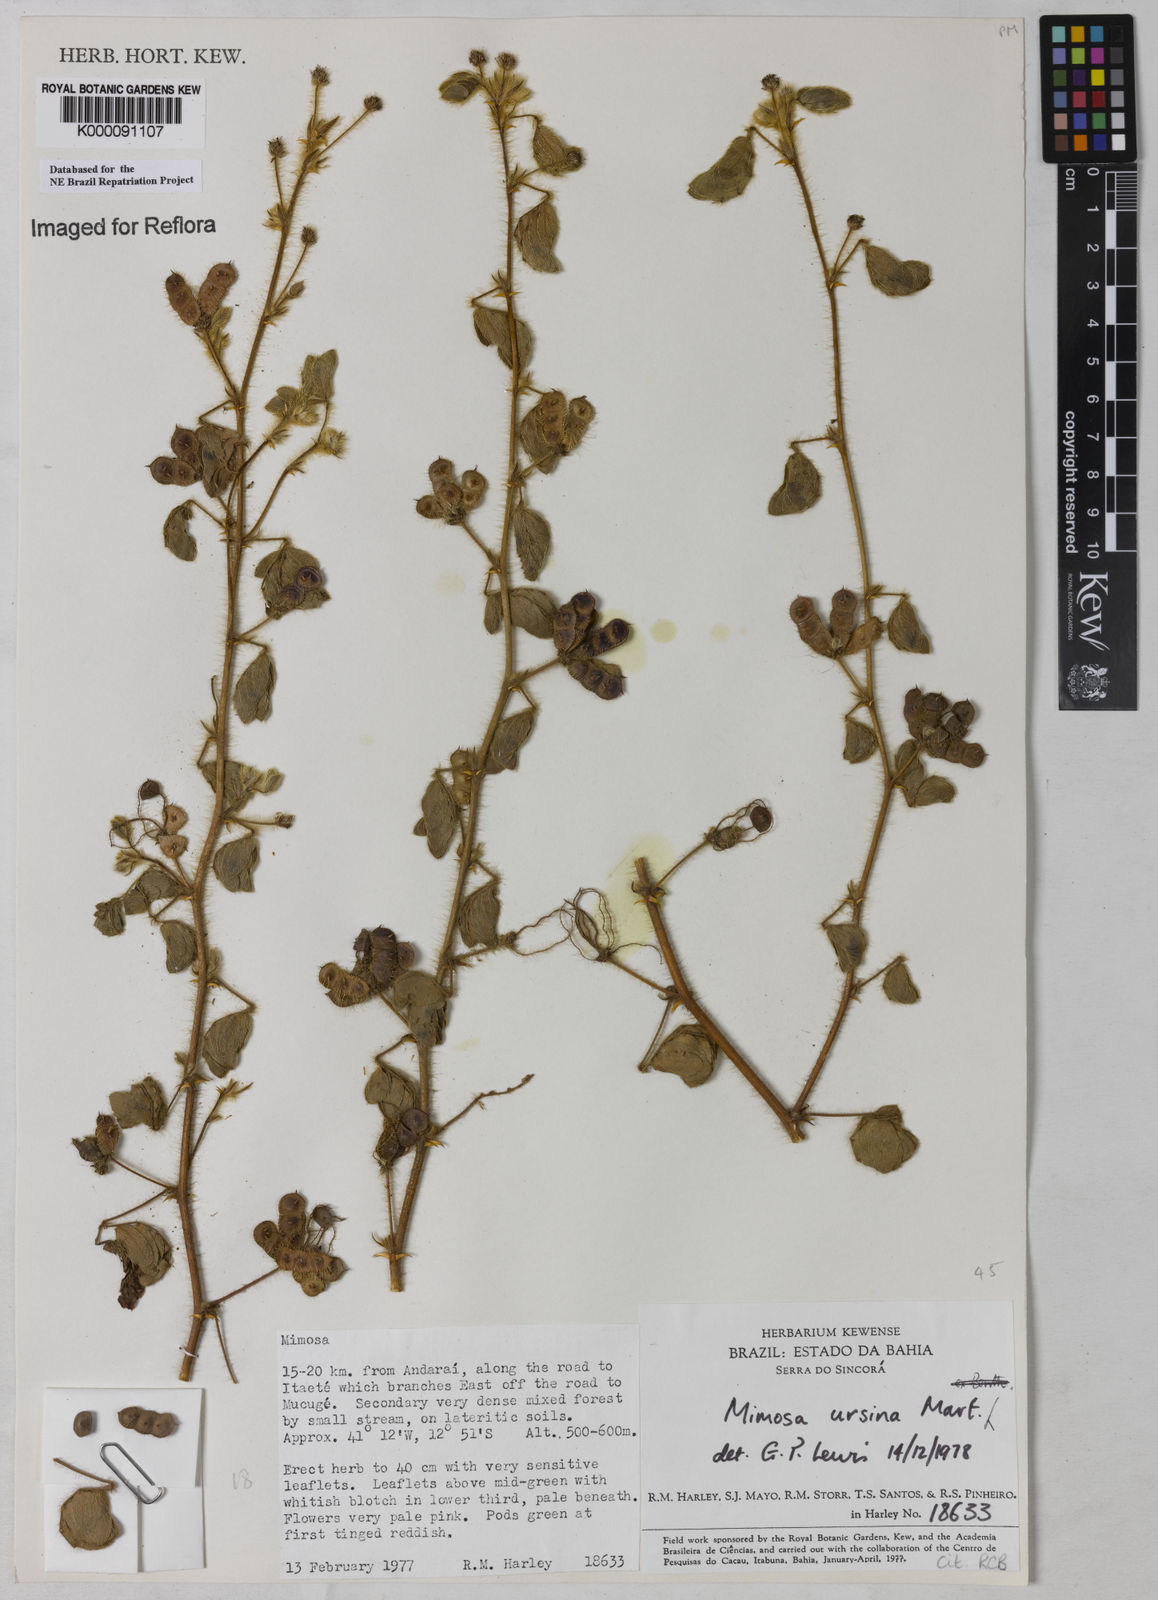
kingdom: Plantae
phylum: Tracheophyta
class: Magnoliopsida
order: Fabales
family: Fabaceae
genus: Mimosa
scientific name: Mimosa ursina
